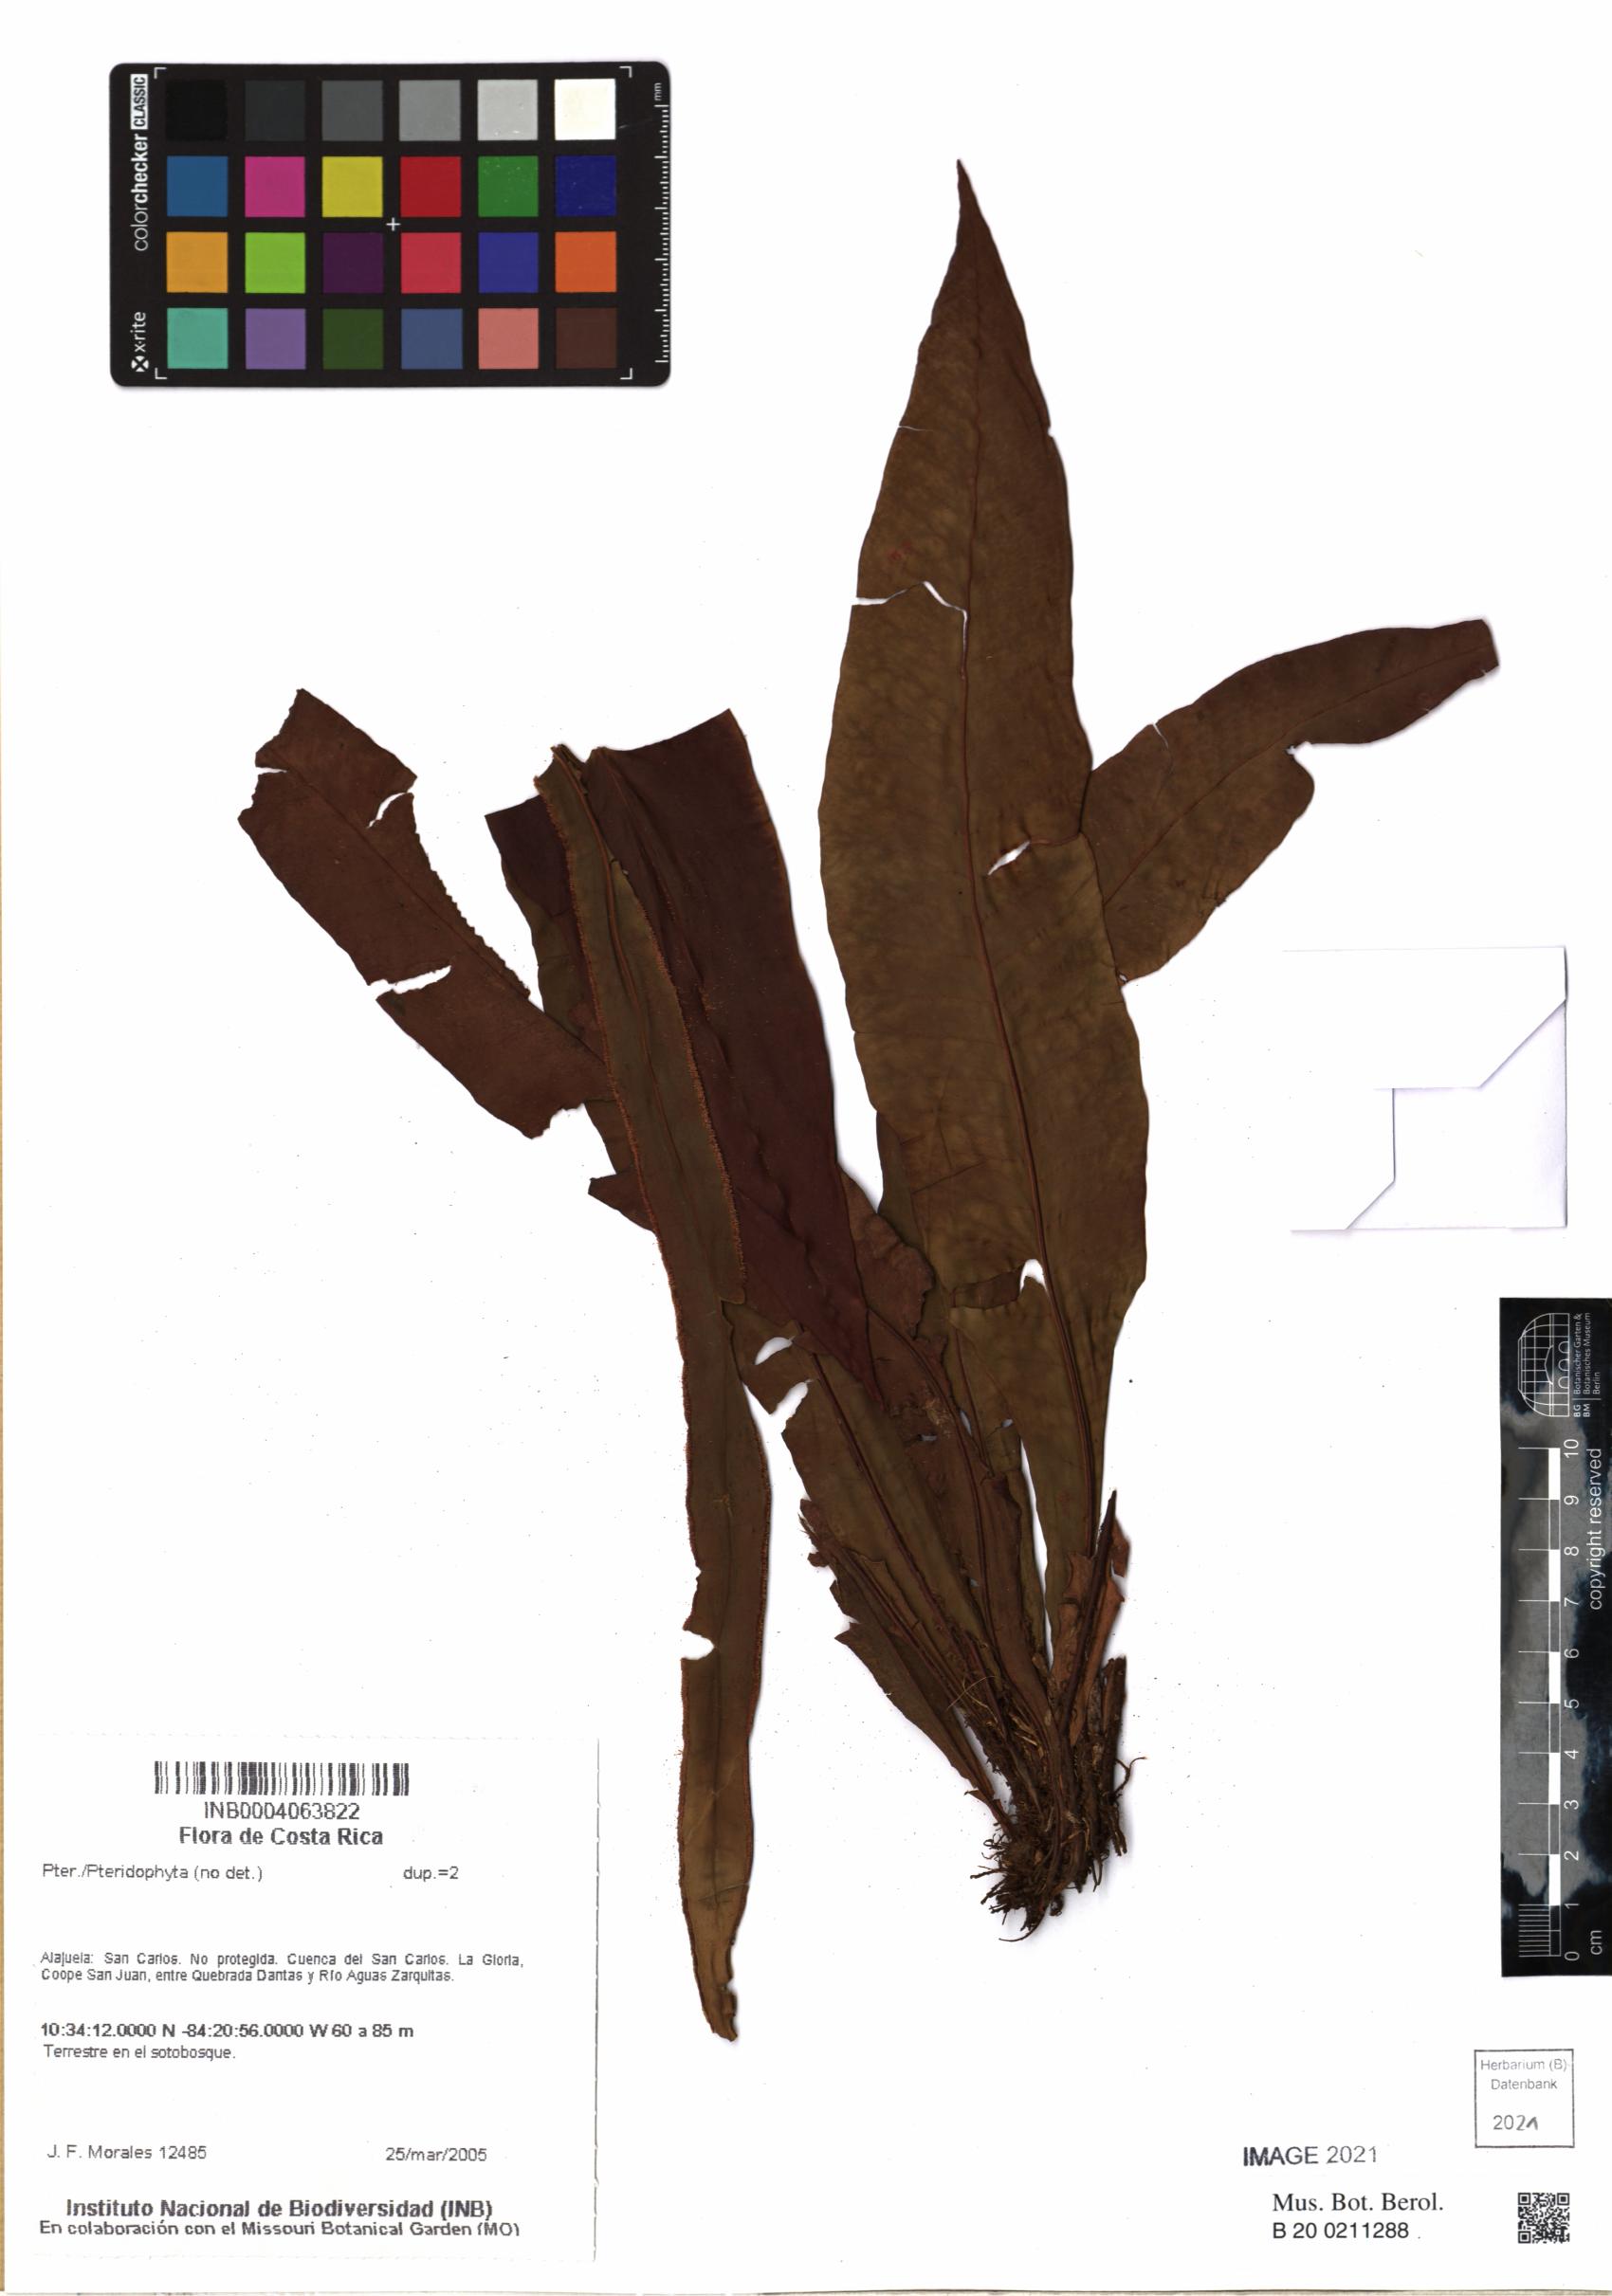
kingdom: Plantae
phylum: Tracheophyta
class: Polypodiopsida
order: Polypodiales
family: Tectariaceae
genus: Tectaria
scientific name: Tectaria panamensis
